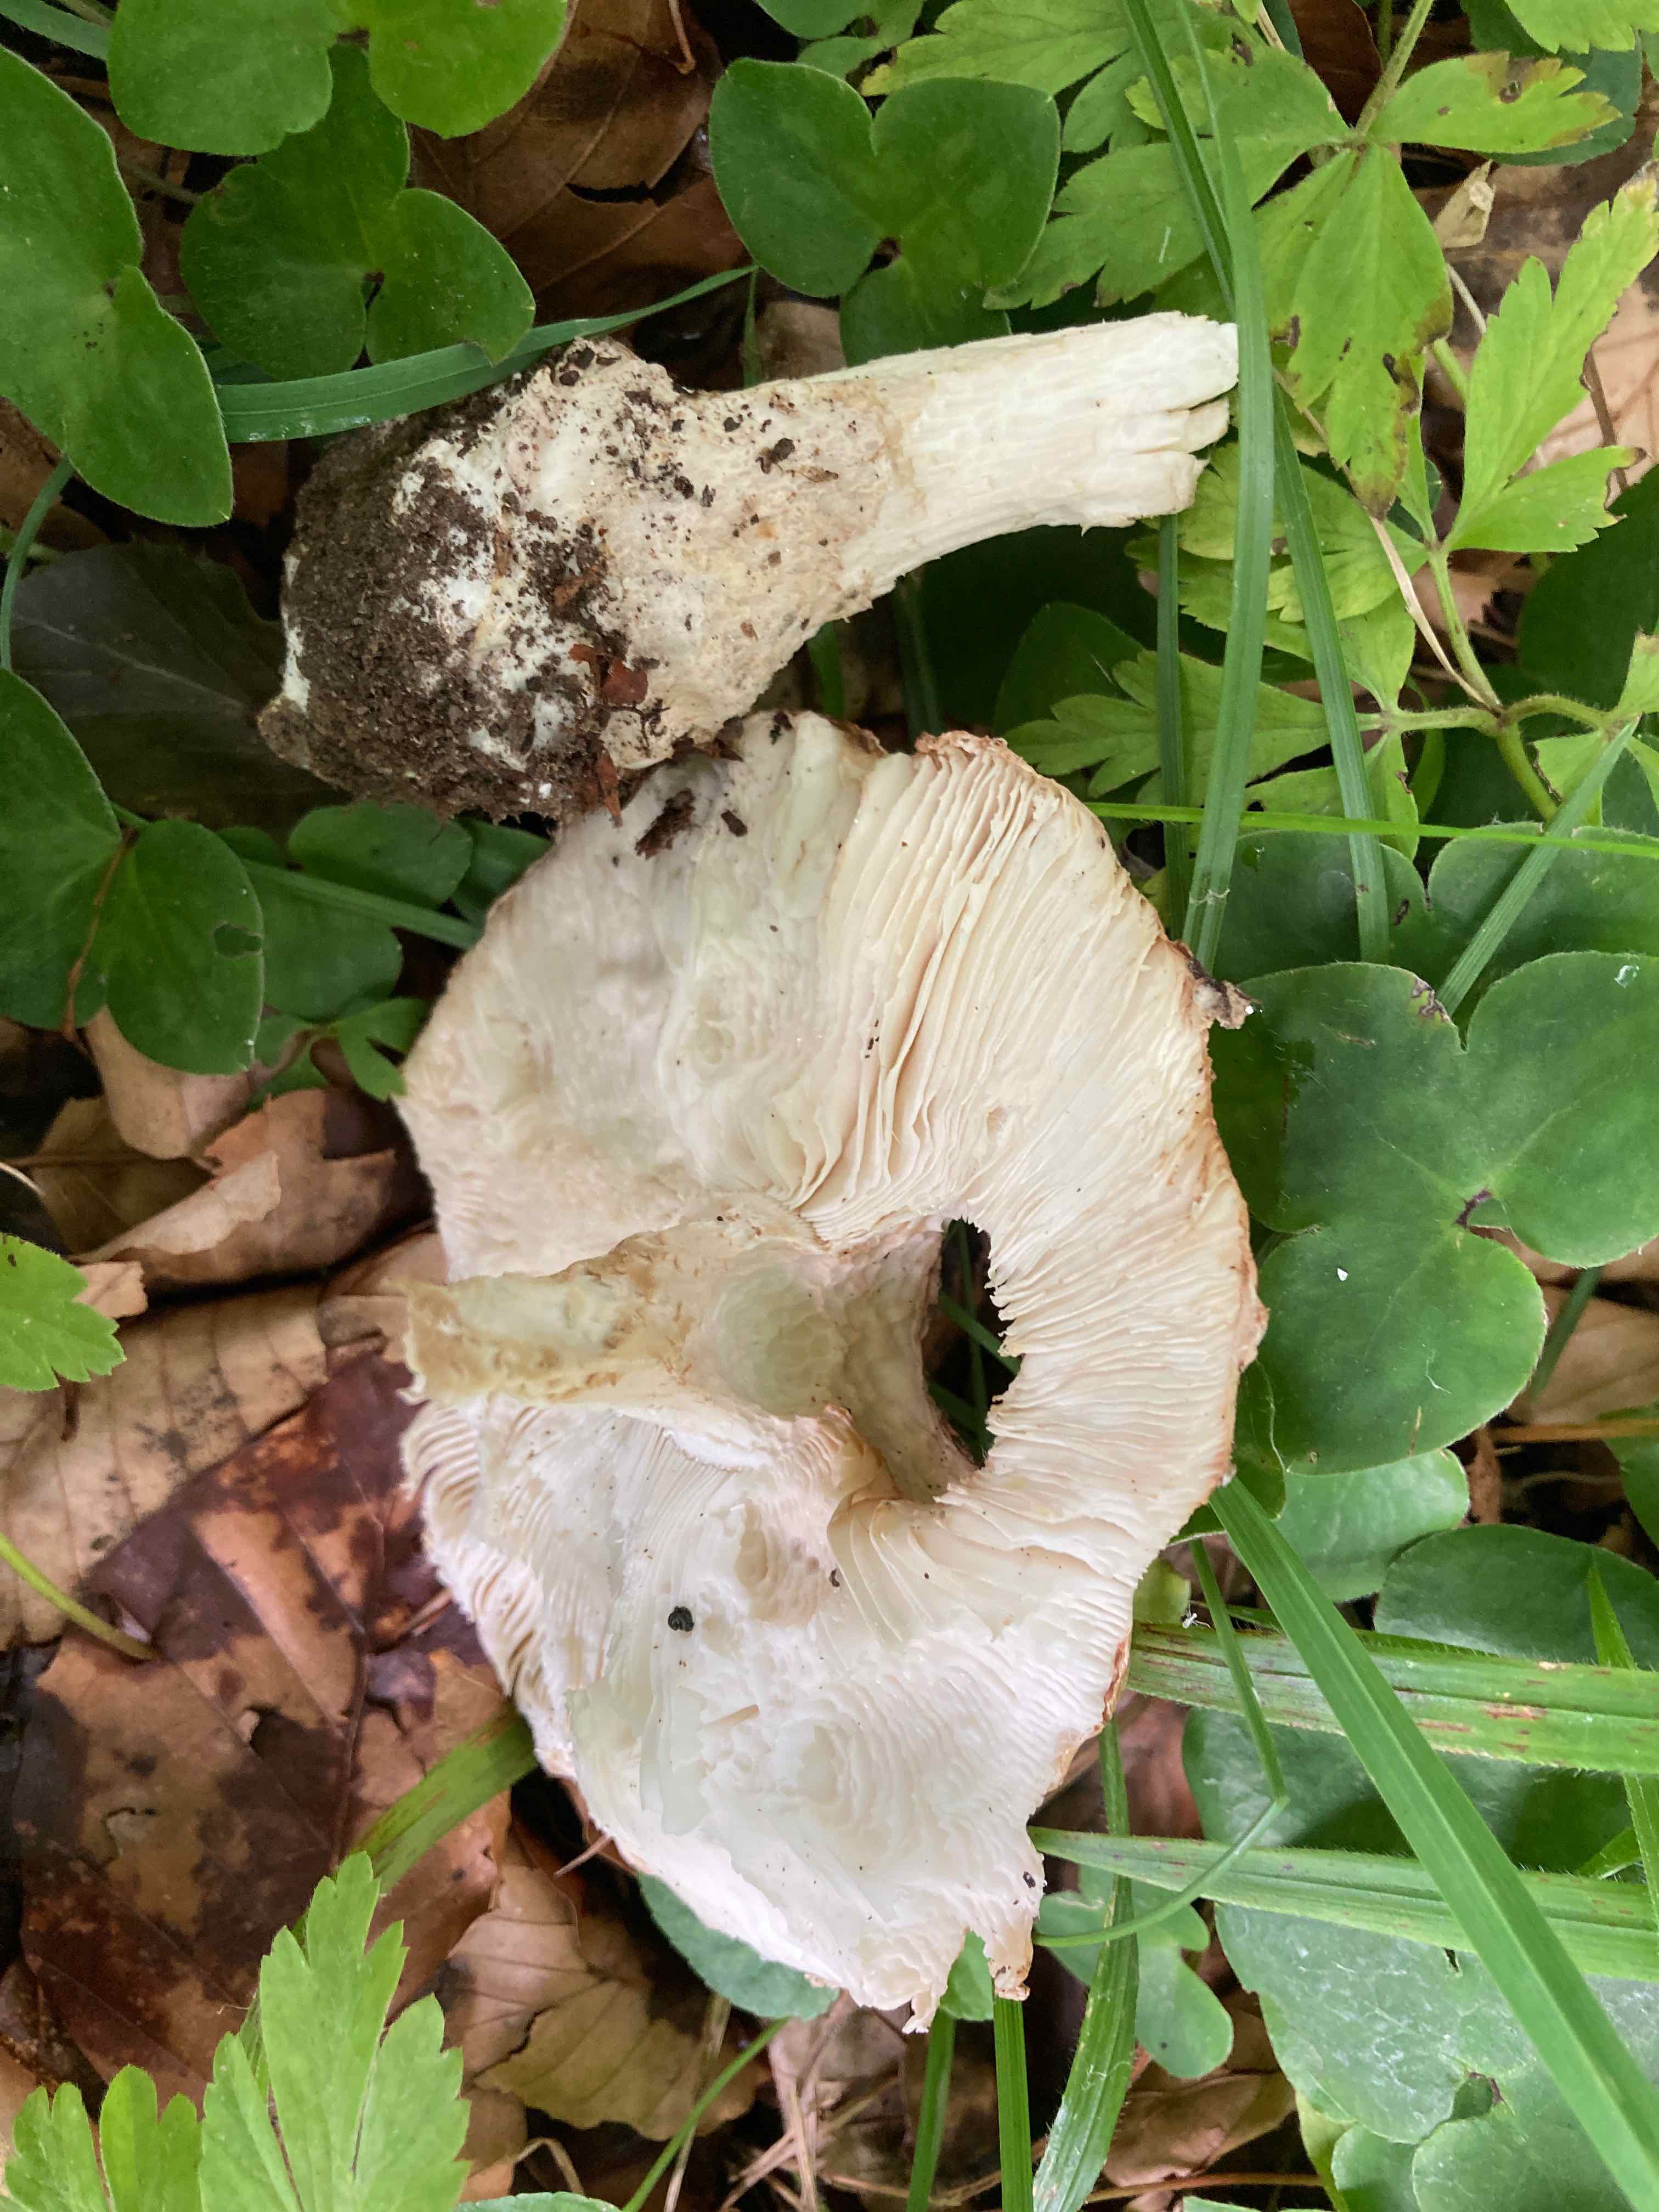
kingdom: Fungi
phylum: Basidiomycota
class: Agaricomycetes
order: Agaricales
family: Amanitaceae
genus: Amanita
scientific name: Amanita
